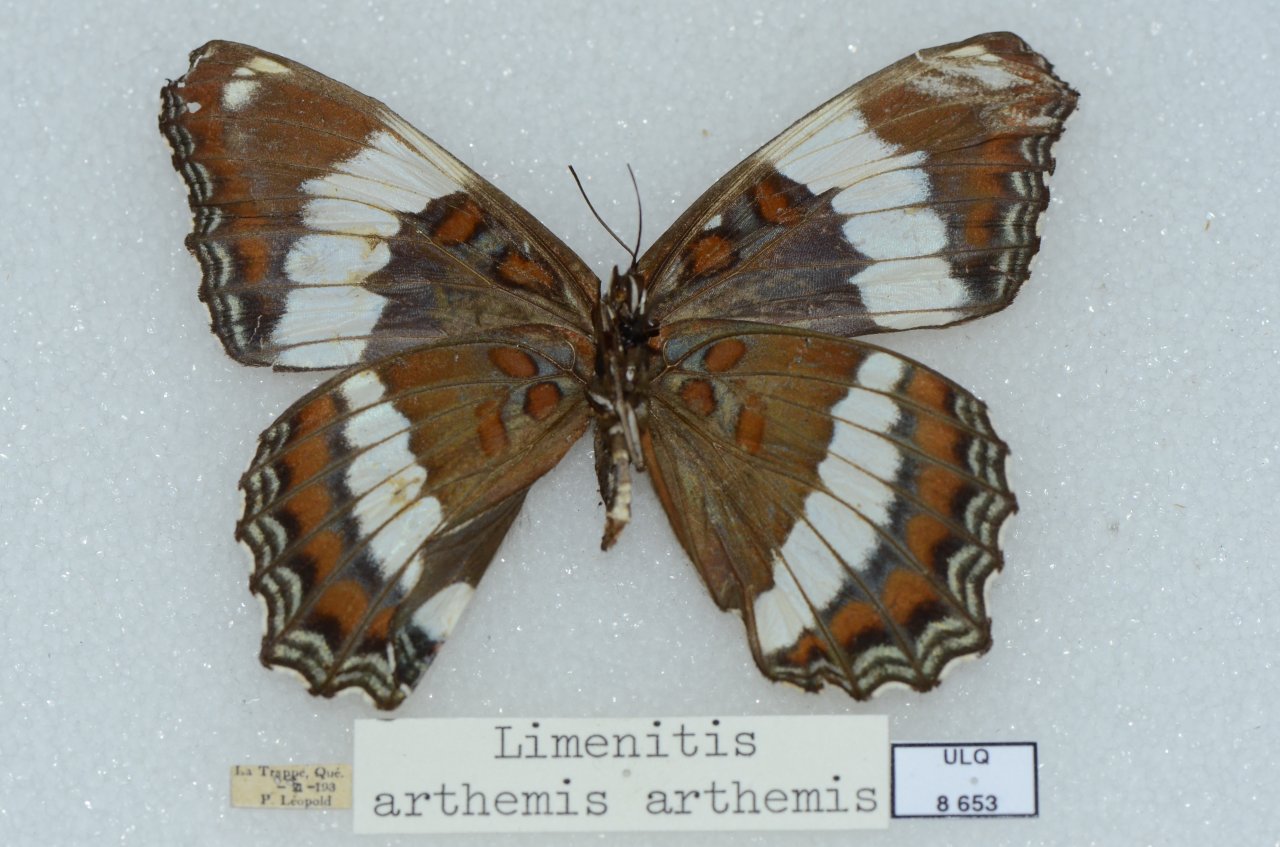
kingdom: Animalia
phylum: Arthropoda
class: Insecta
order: Lepidoptera
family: Nymphalidae
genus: Limenitis
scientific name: Limenitis arthemis
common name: Red-spotted Admiral
